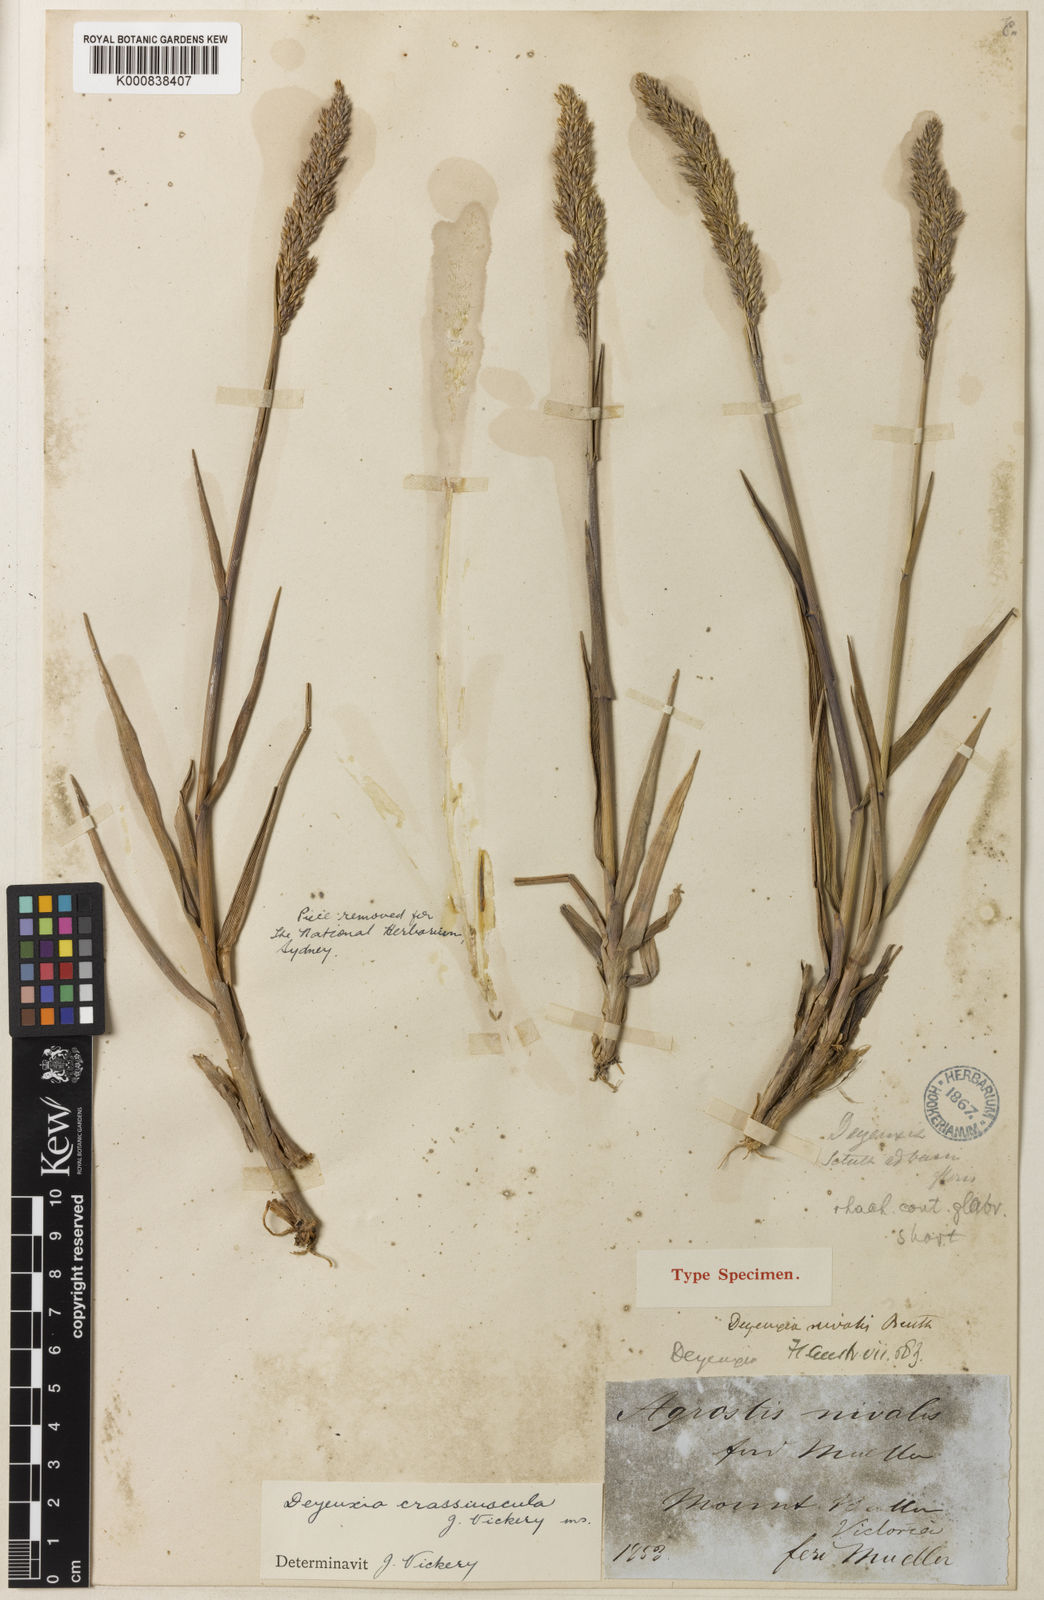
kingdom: Plantae
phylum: Tracheophyta
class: Liliopsida
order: Poales
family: Poaceae
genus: Calamagrostis
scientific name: Calamagrostis crassiuscula
